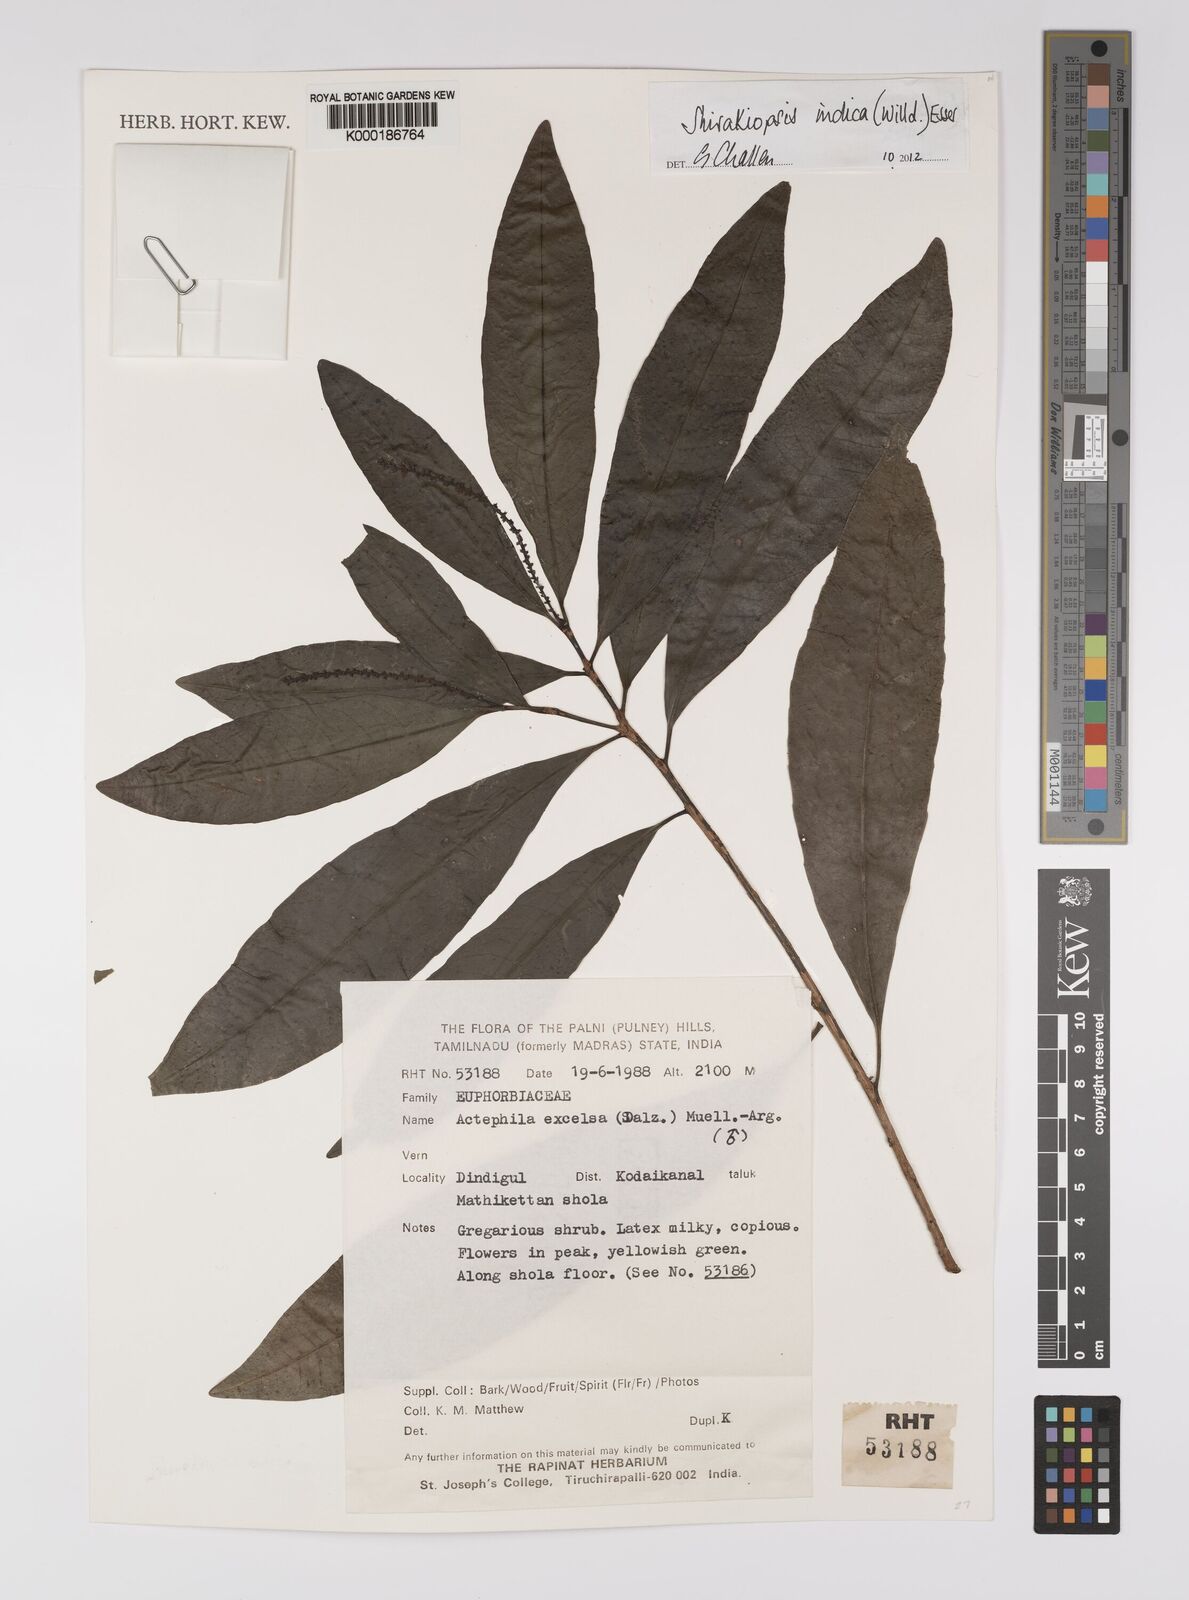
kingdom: Plantae
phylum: Tracheophyta
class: Magnoliopsida
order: Malpighiales
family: Phyllanthaceae
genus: Actephila
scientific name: Actephila excelsa
